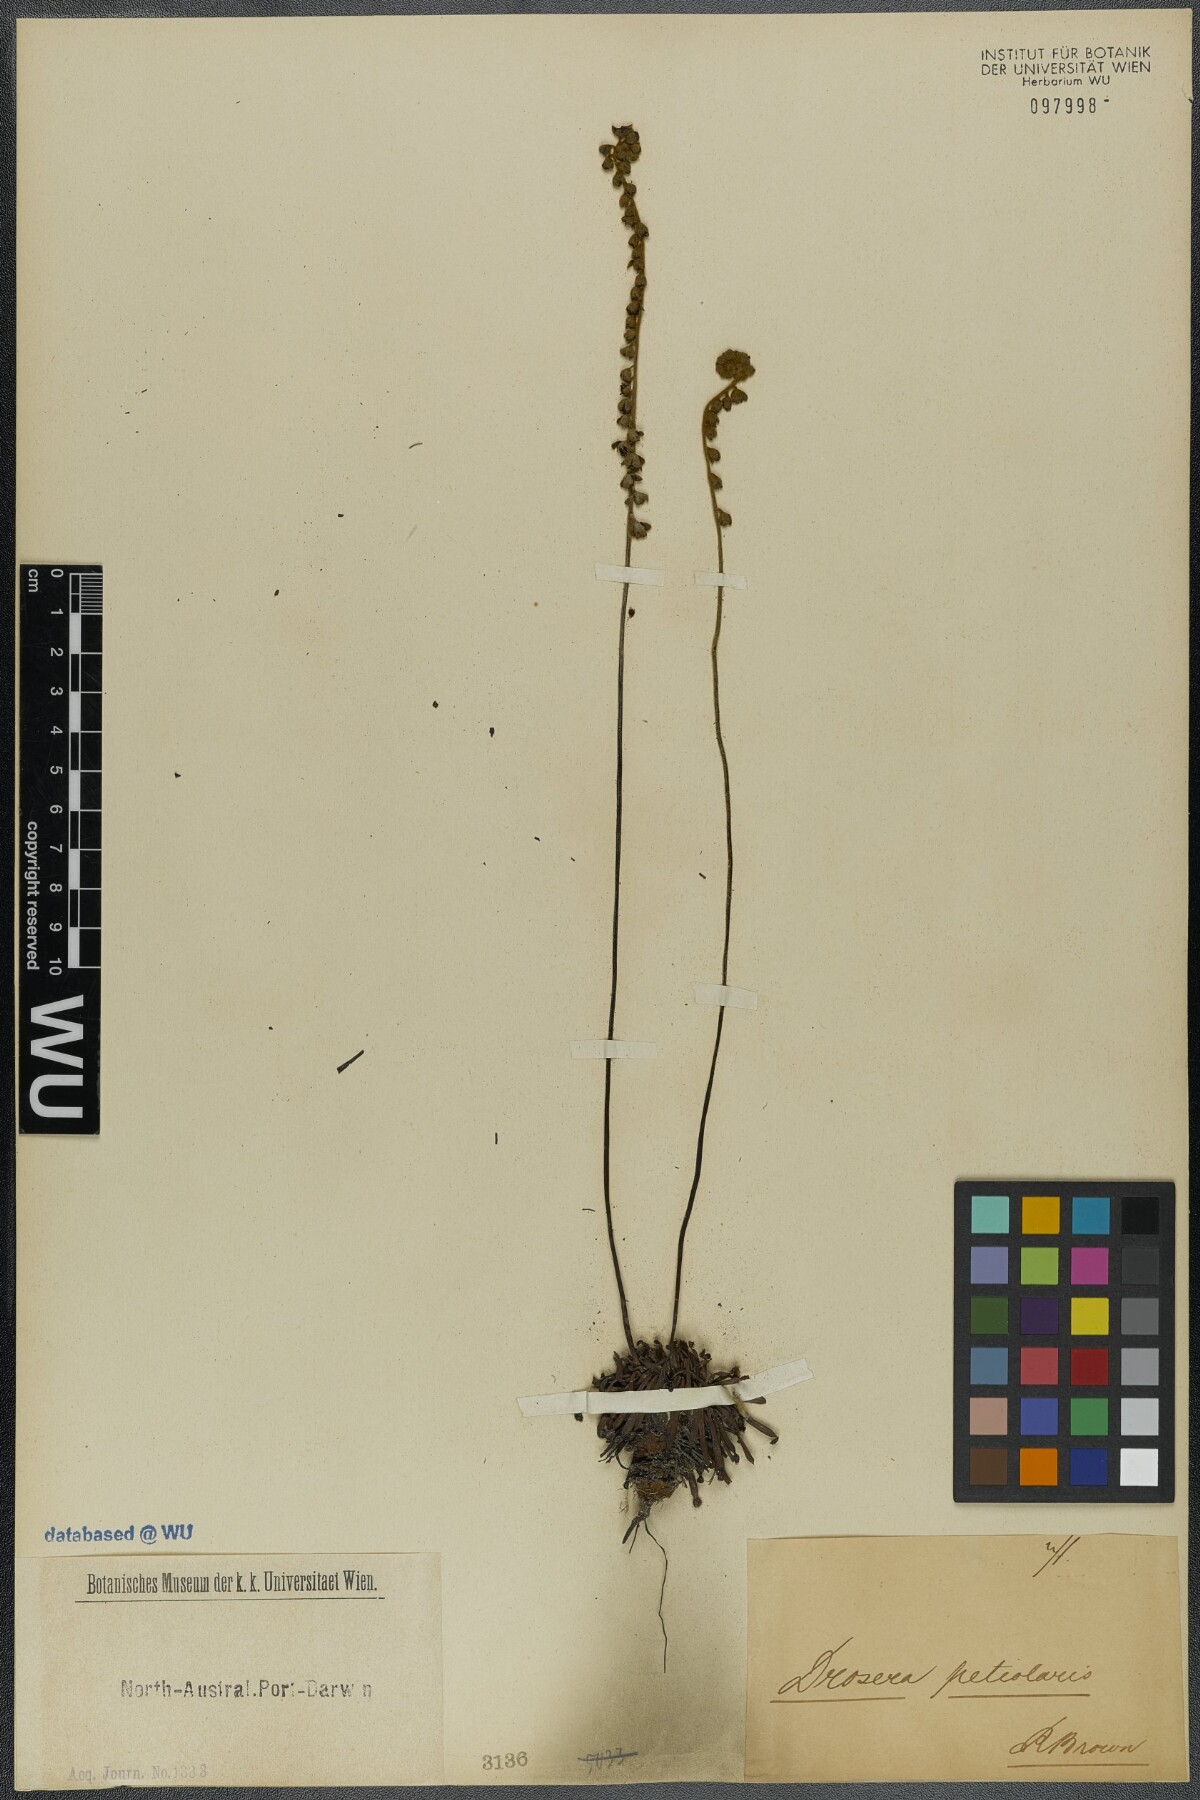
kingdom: Plantae
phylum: Tracheophyta
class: Magnoliopsida
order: Caryophyllales
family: Droseraceae
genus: Drosera
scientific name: Drosera petiolaris
